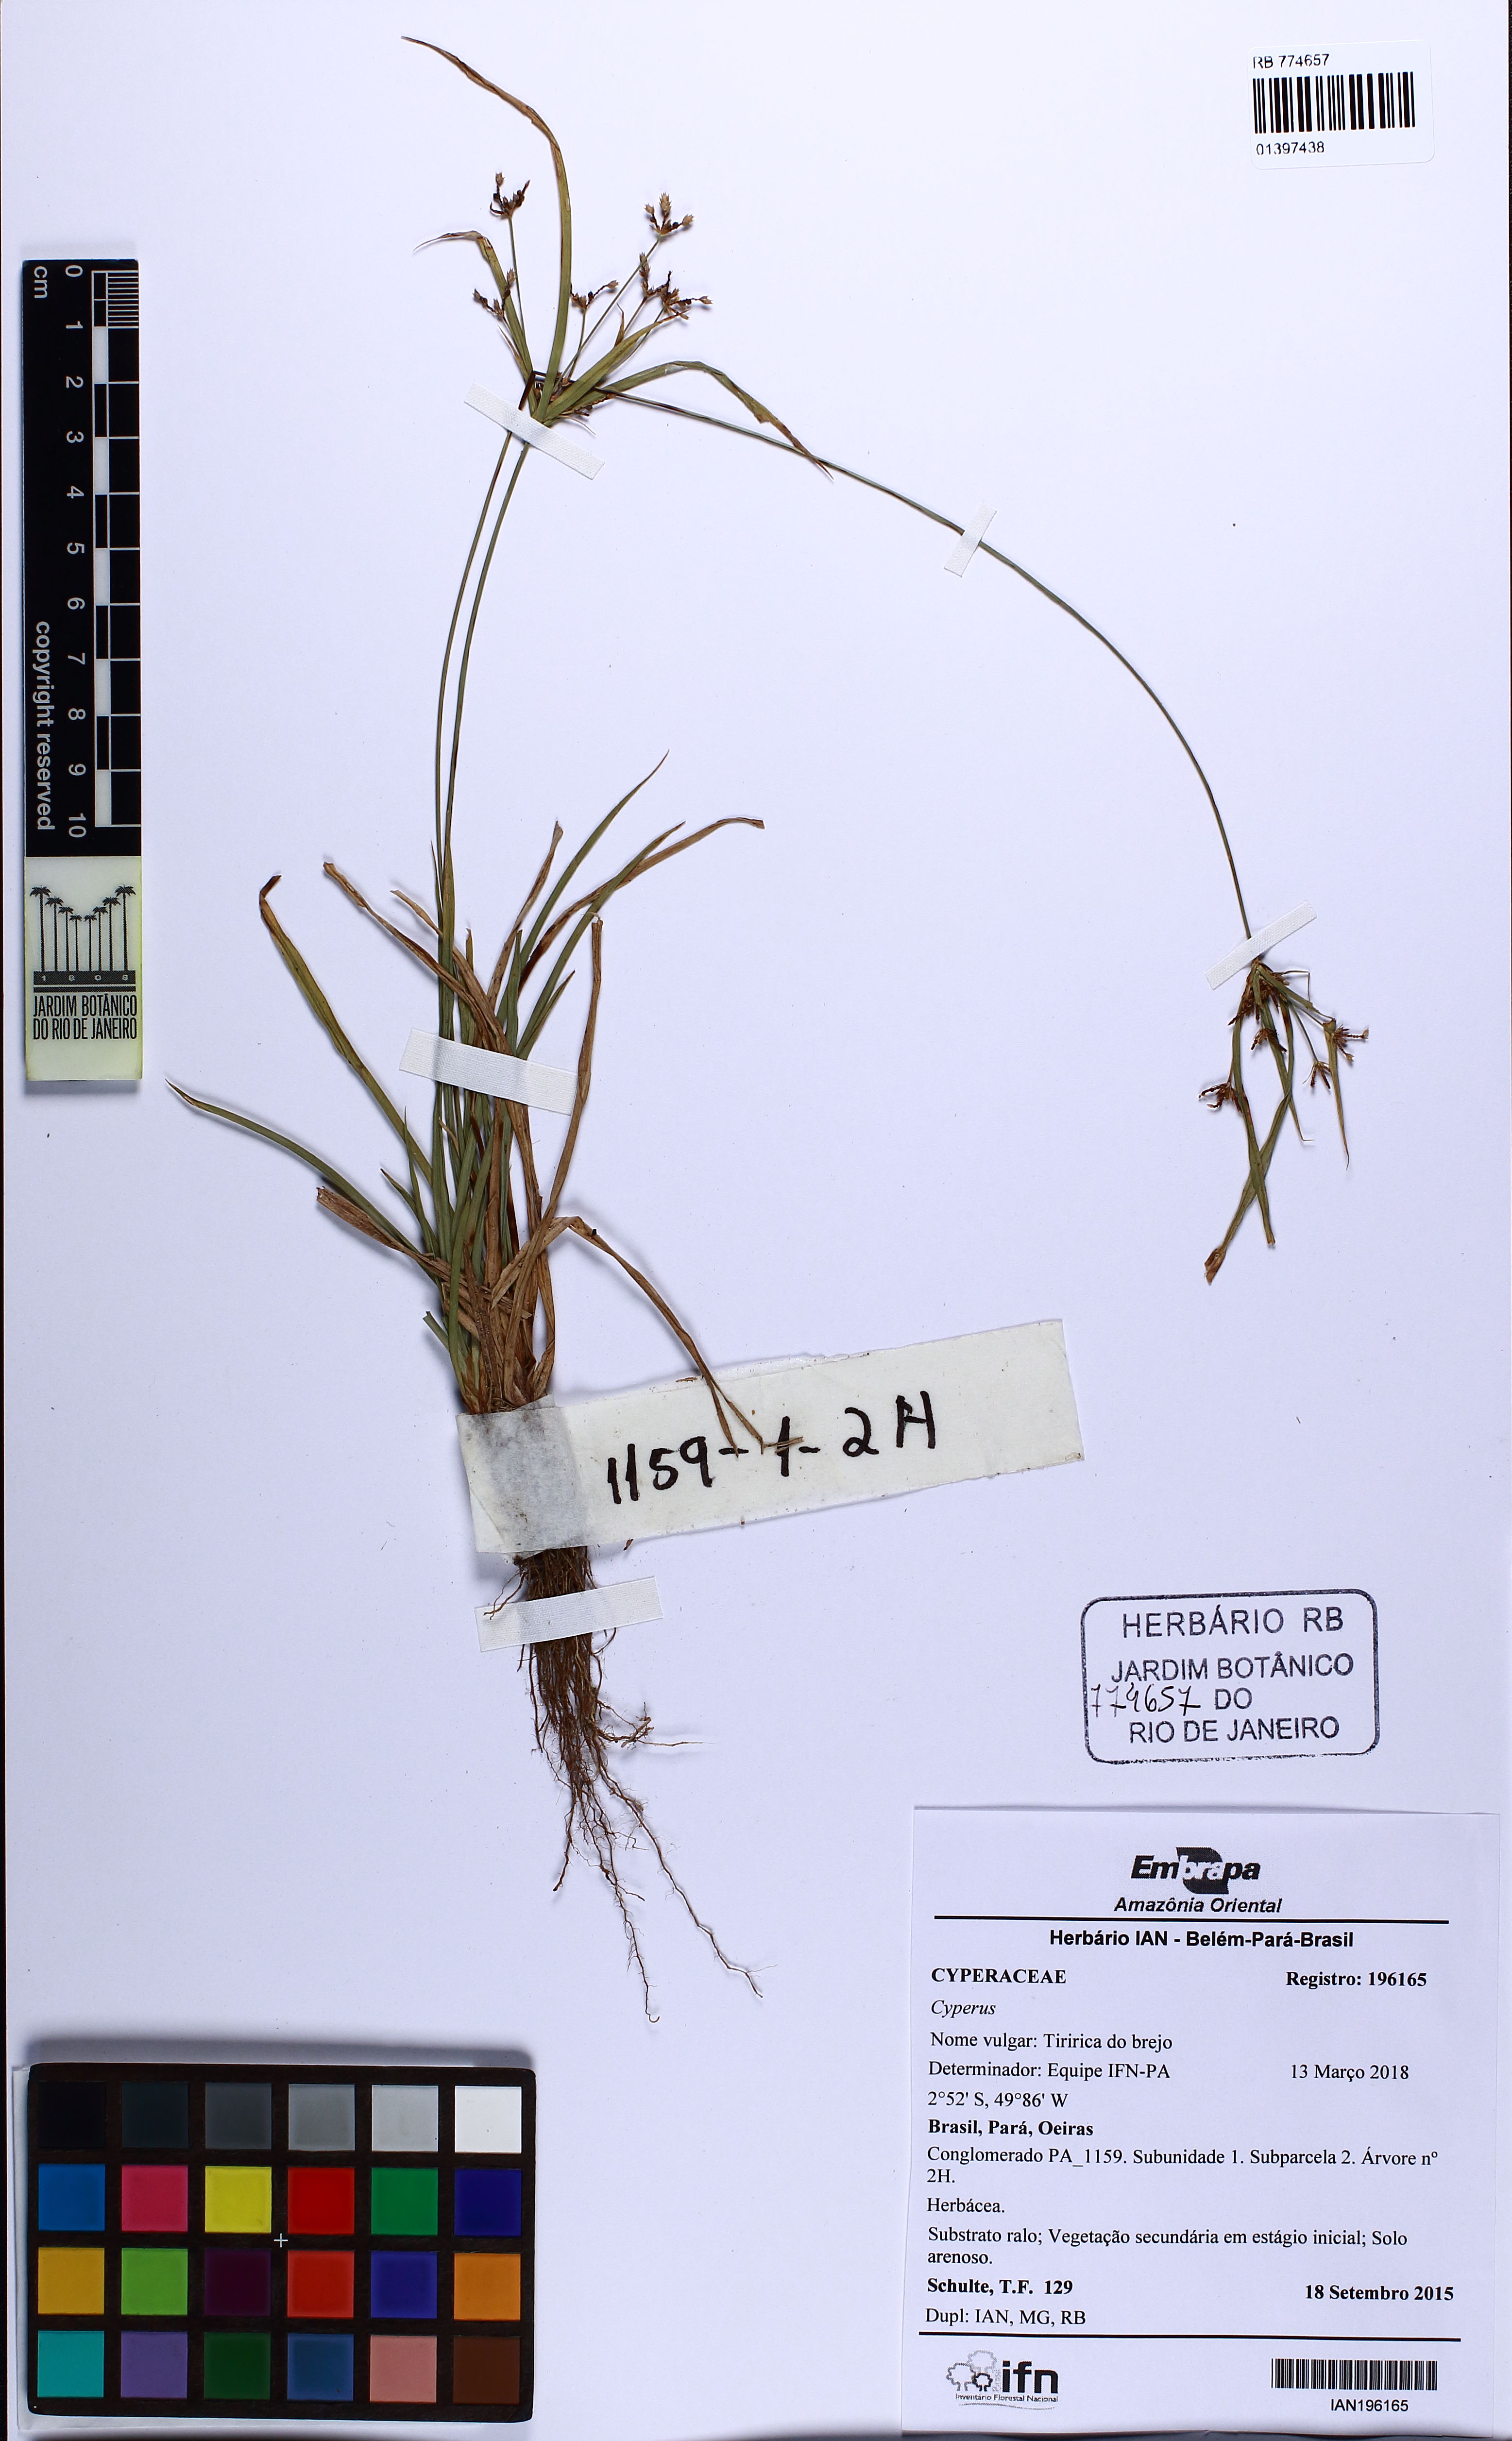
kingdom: Plantae
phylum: Tracheophyta
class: Liliopsida
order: Poales
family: Cyperaceae
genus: Cyperus
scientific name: Cyperus laxus
